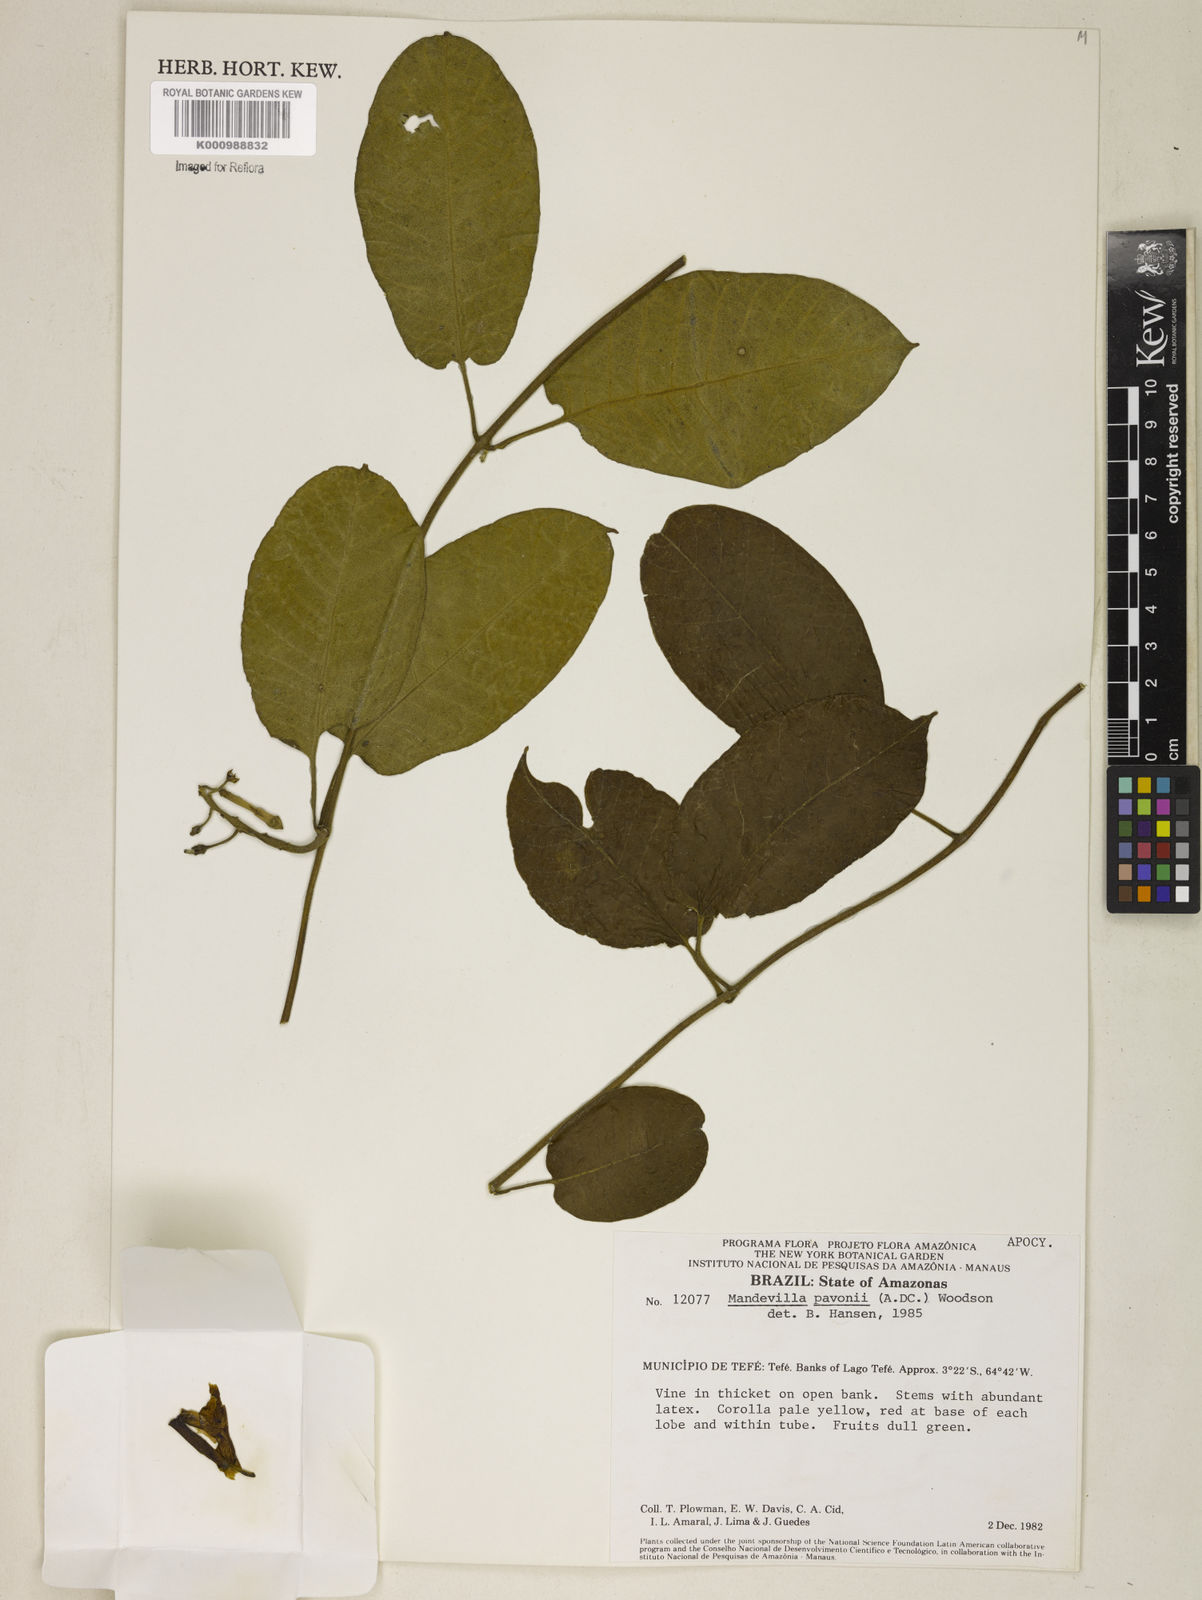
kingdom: Plantae
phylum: Tracheophyta
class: Magnoliopsida
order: Gentianales
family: Apocynaceae
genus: Mandevilla
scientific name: Mandevilla pavonii
